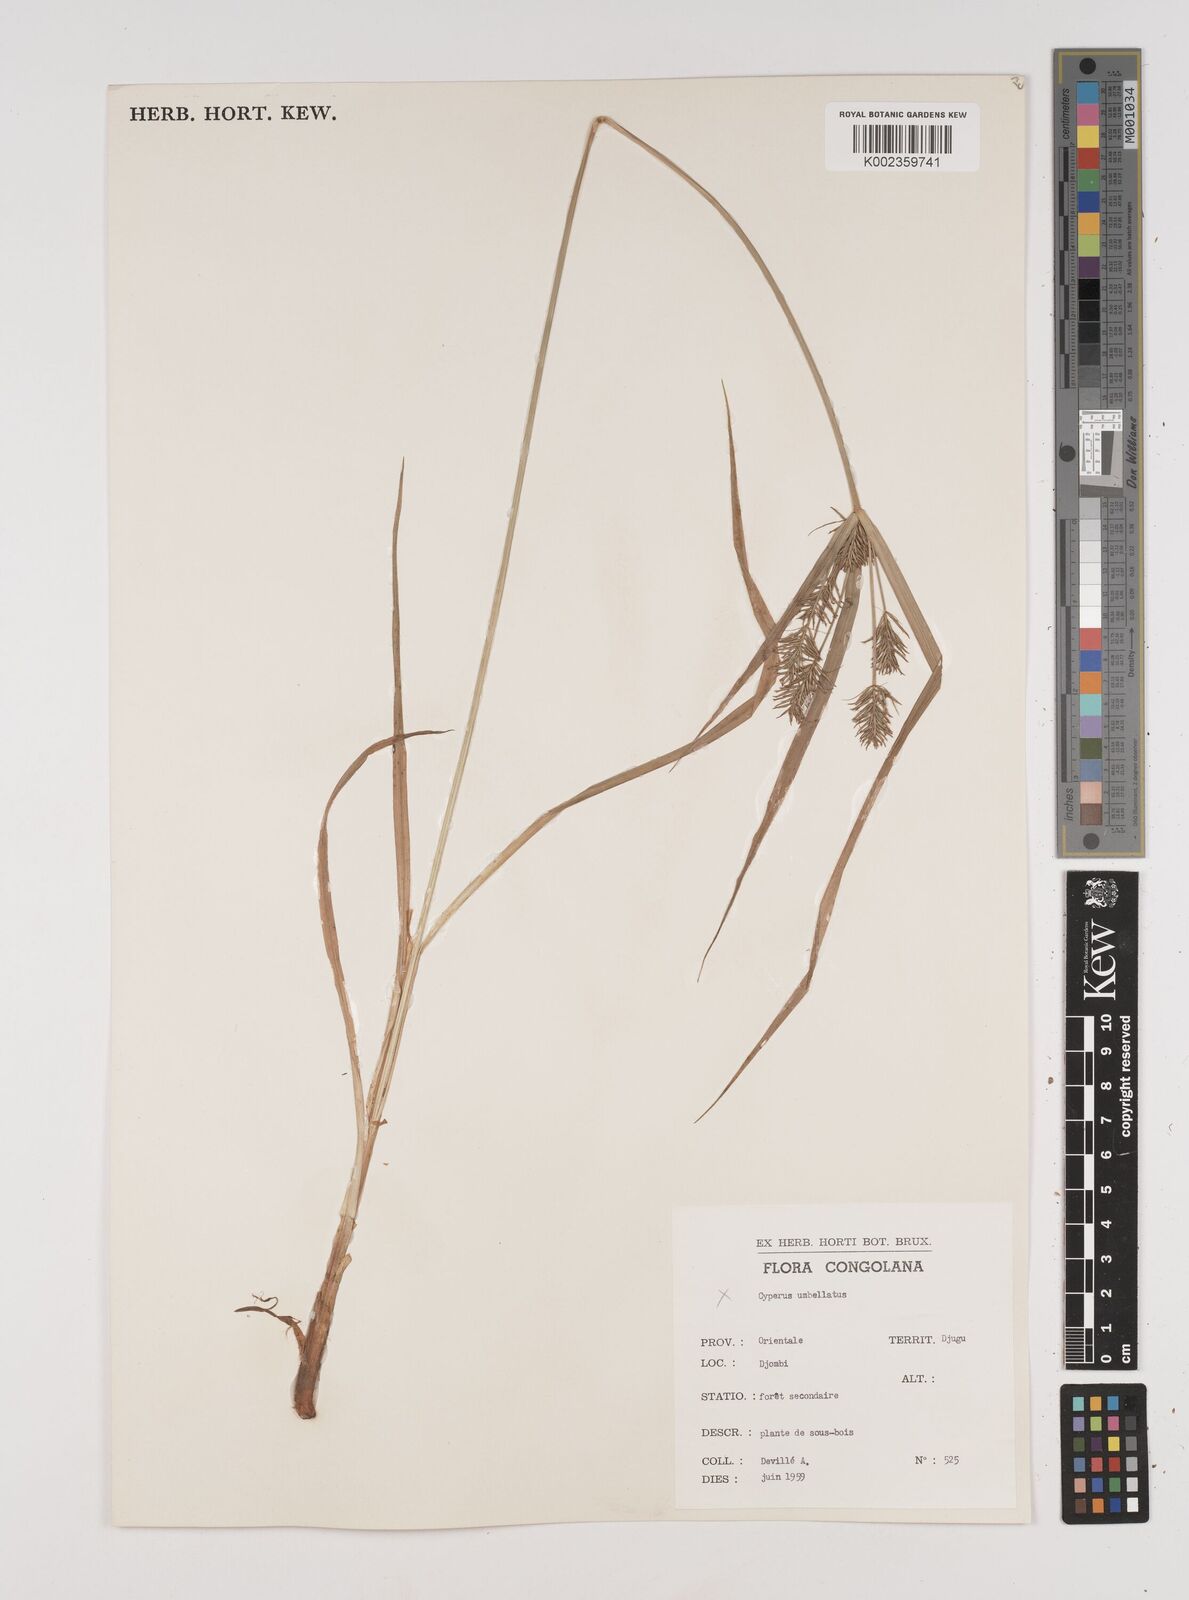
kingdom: Plantae
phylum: Tracheophyta
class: Liliopsida
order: Poales
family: Cyperaceae
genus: Cyperus
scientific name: Cyperus ferrugineoviridis
